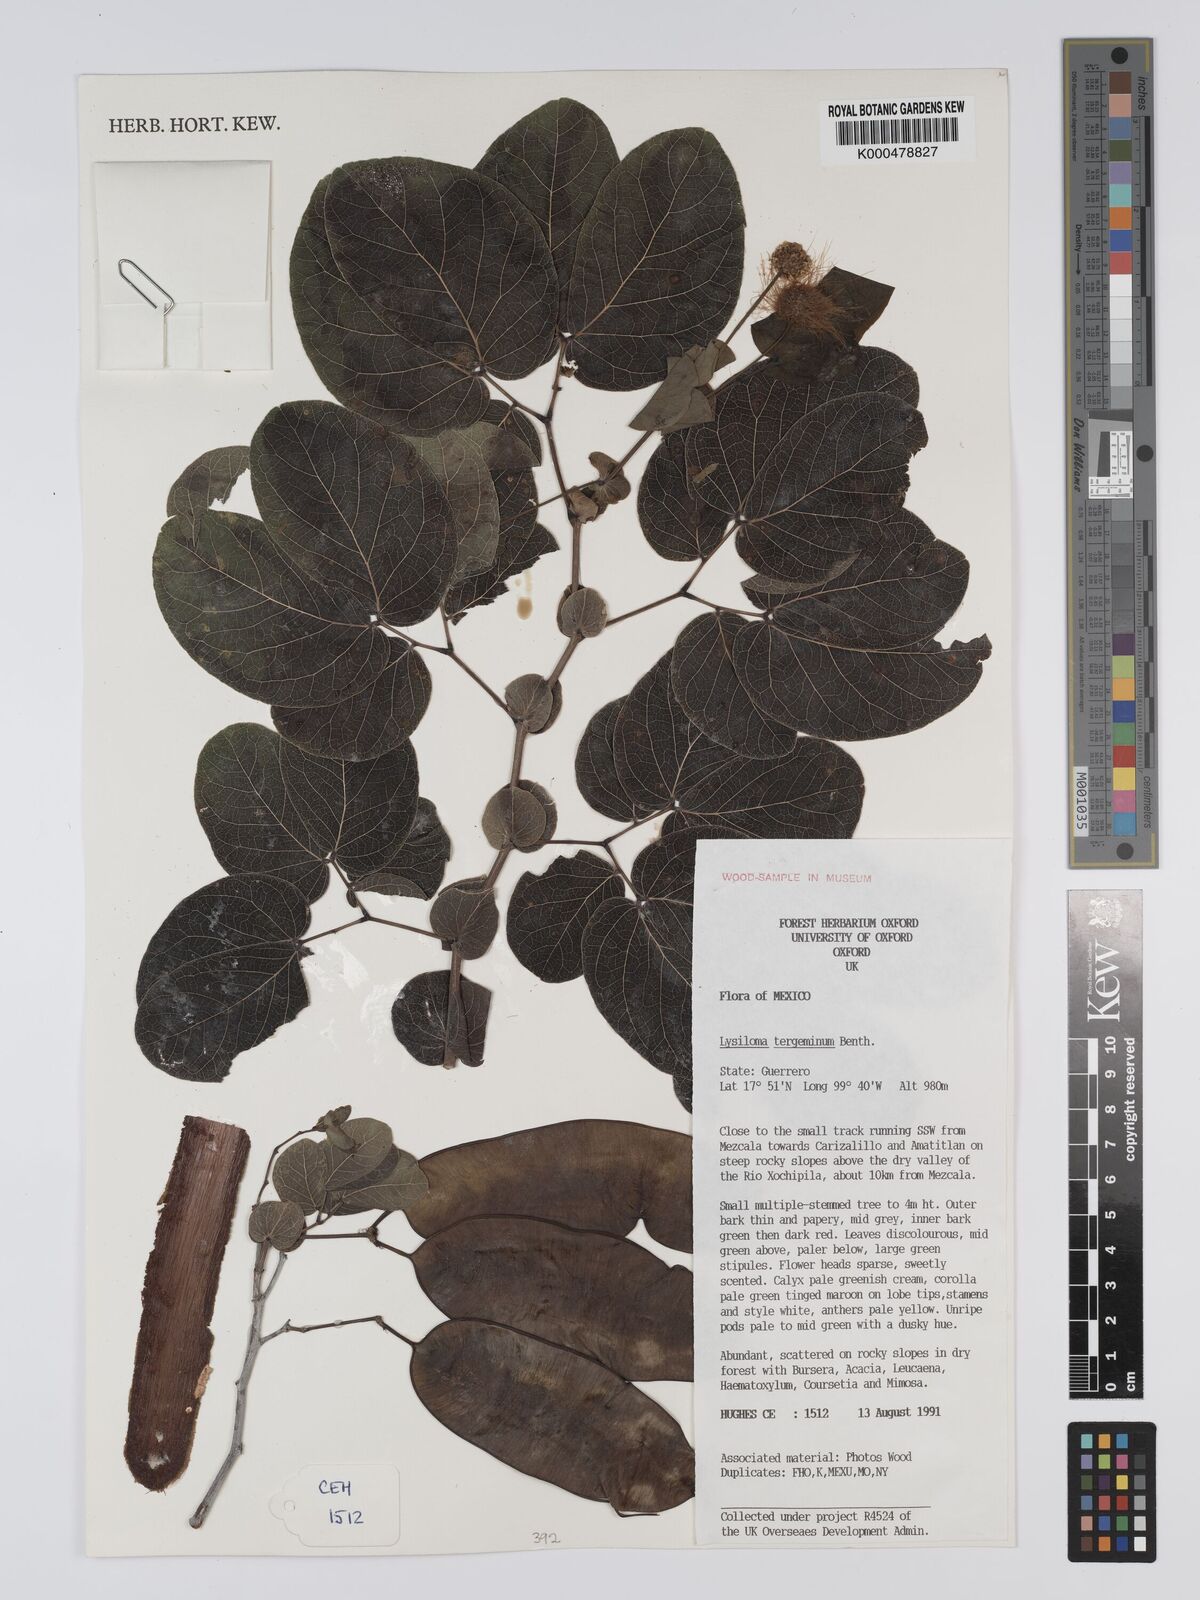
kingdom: Plantae
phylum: Tracheophyta
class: Magnoliopsida
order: Fabales
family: Fabaceae
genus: Lysiloma
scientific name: Lysiloma tergeminum
